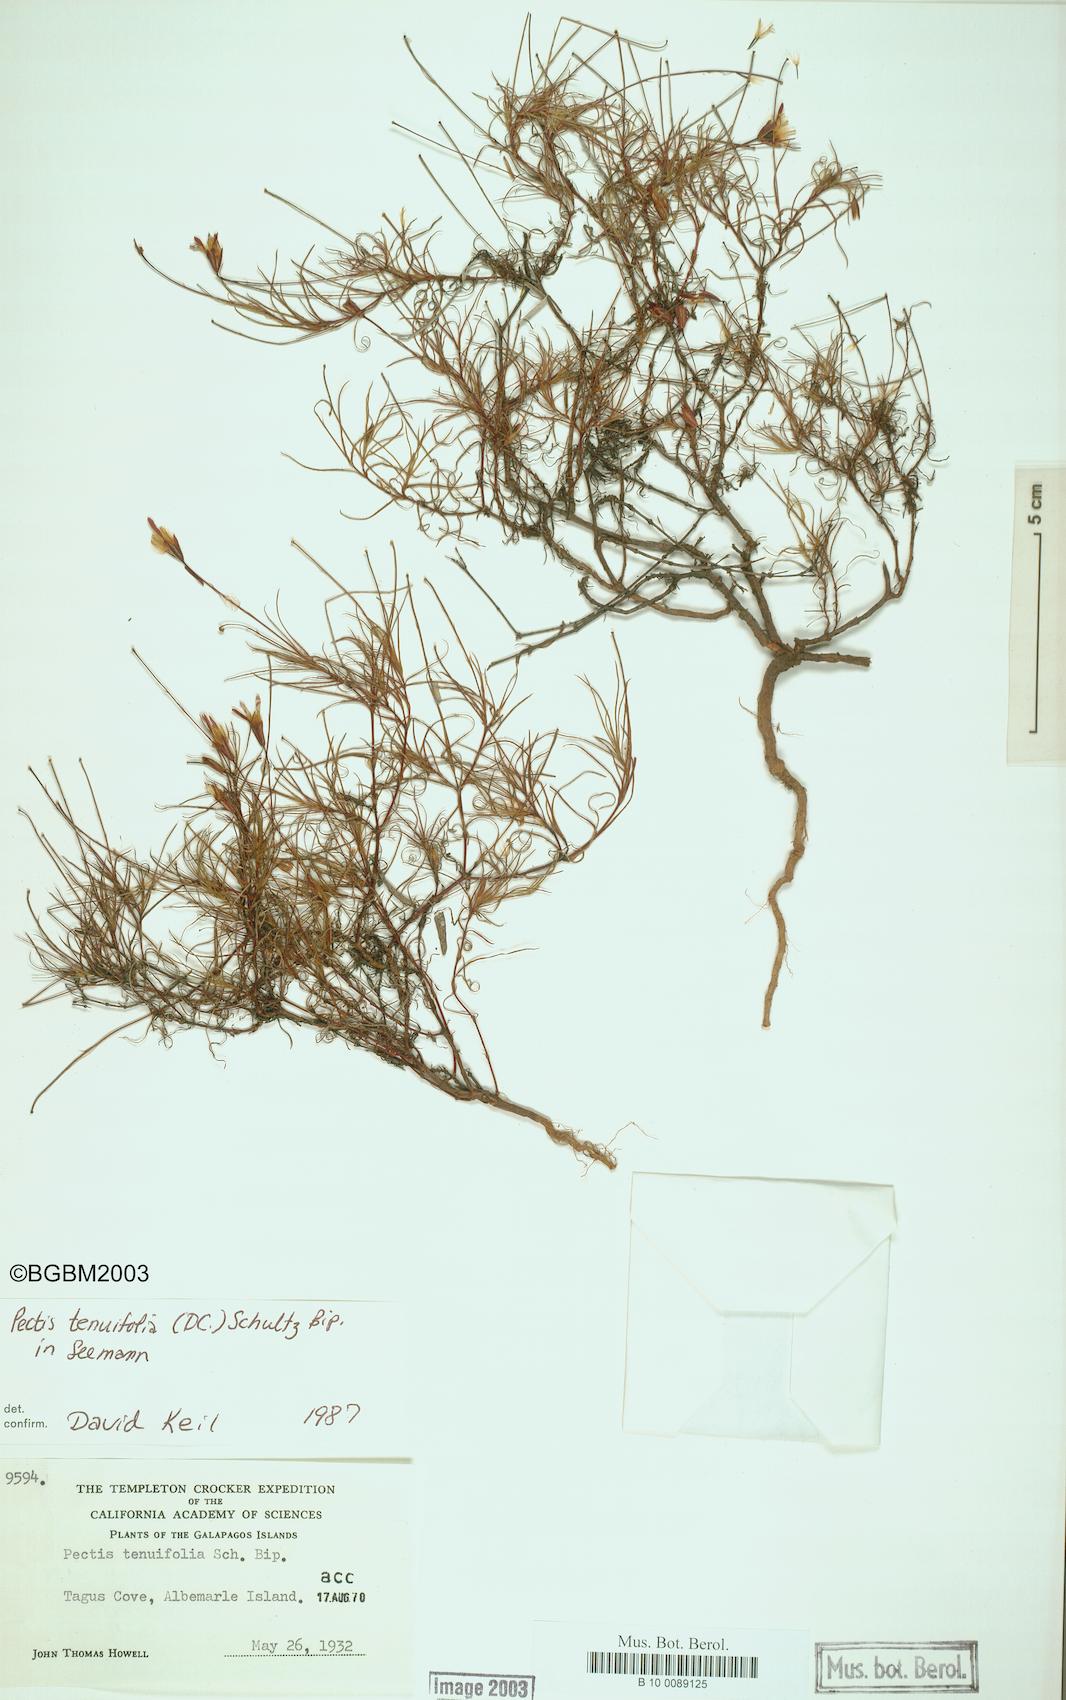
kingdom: Plantae
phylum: Tracheophyta
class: Magnoliopsida
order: Asterales
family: Asteraceae
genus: Pectis
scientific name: Pectis tenuifolia
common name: Oily pectis
